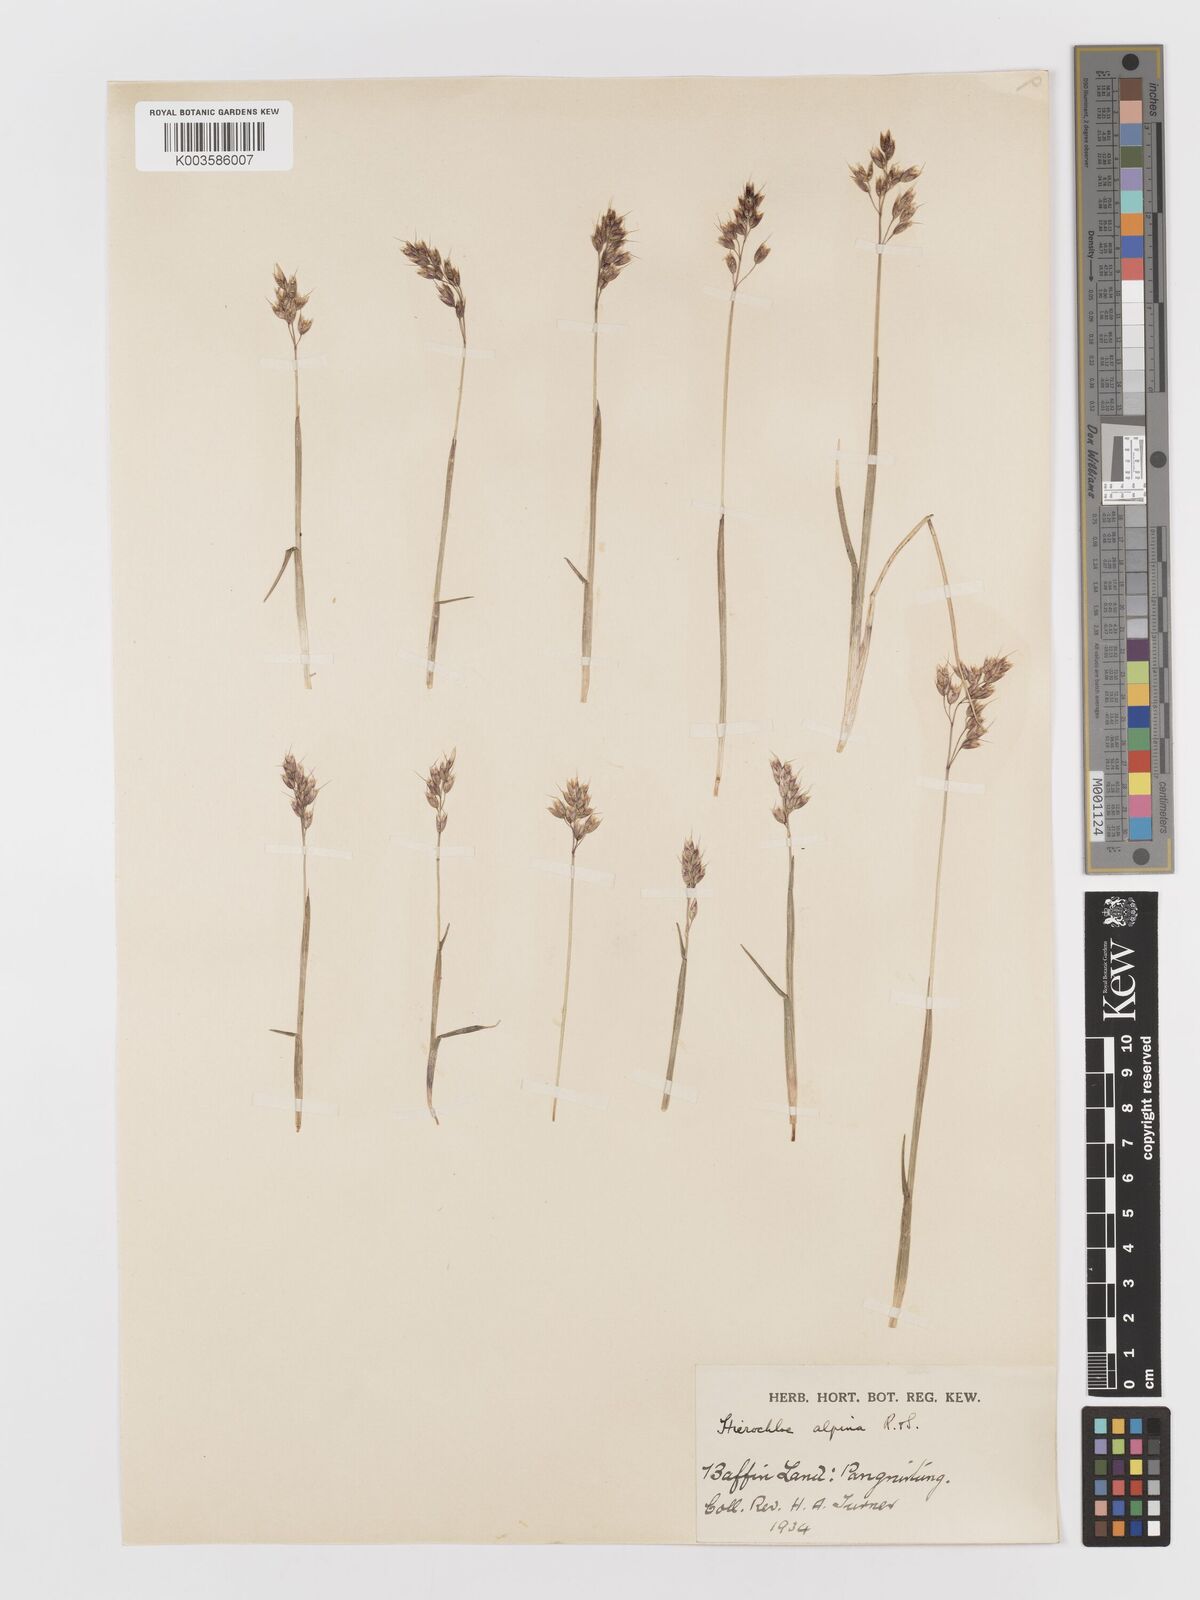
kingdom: Plantae
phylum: Tracheophyta
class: Liliopsida
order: Poales
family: Poaceae
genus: Anthoxanthum
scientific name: Anthoxanthum monticola
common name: Alpine sweetgrass
